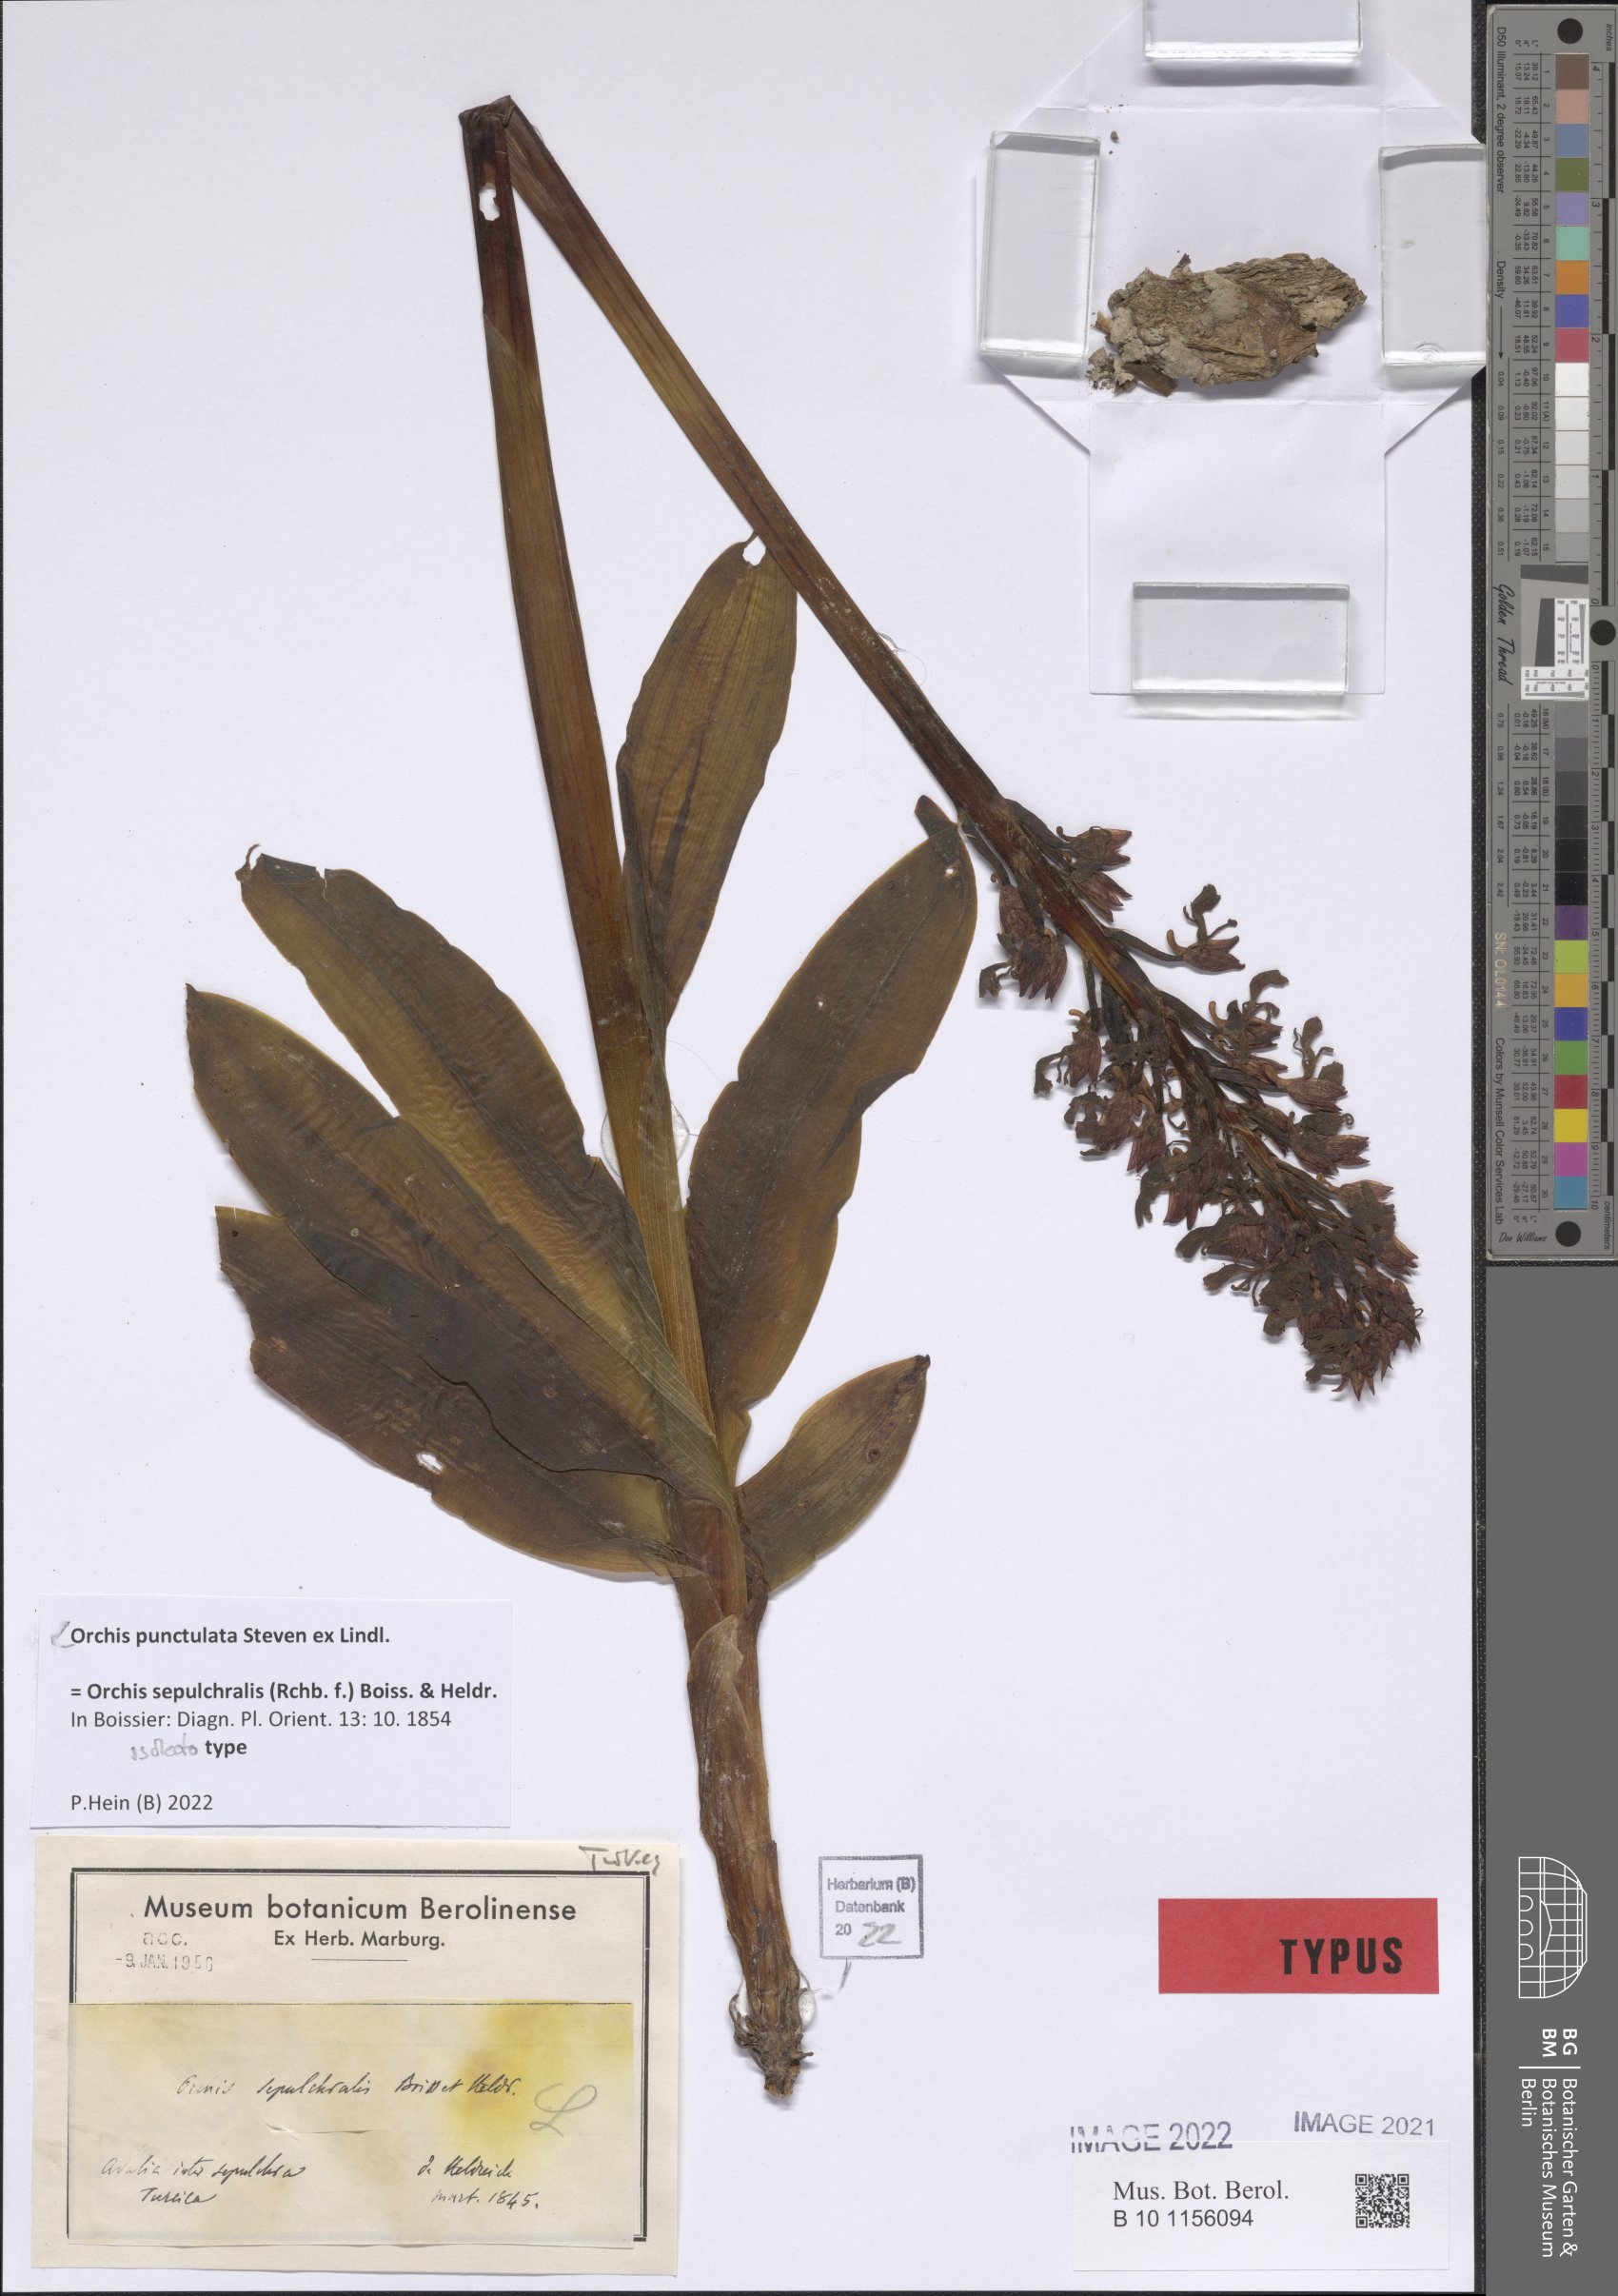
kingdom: Plantae
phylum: Tracheophyta
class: Liliopsida
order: Asparagales
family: Orchidaceae
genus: Orchis
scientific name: Orchis punctulata
